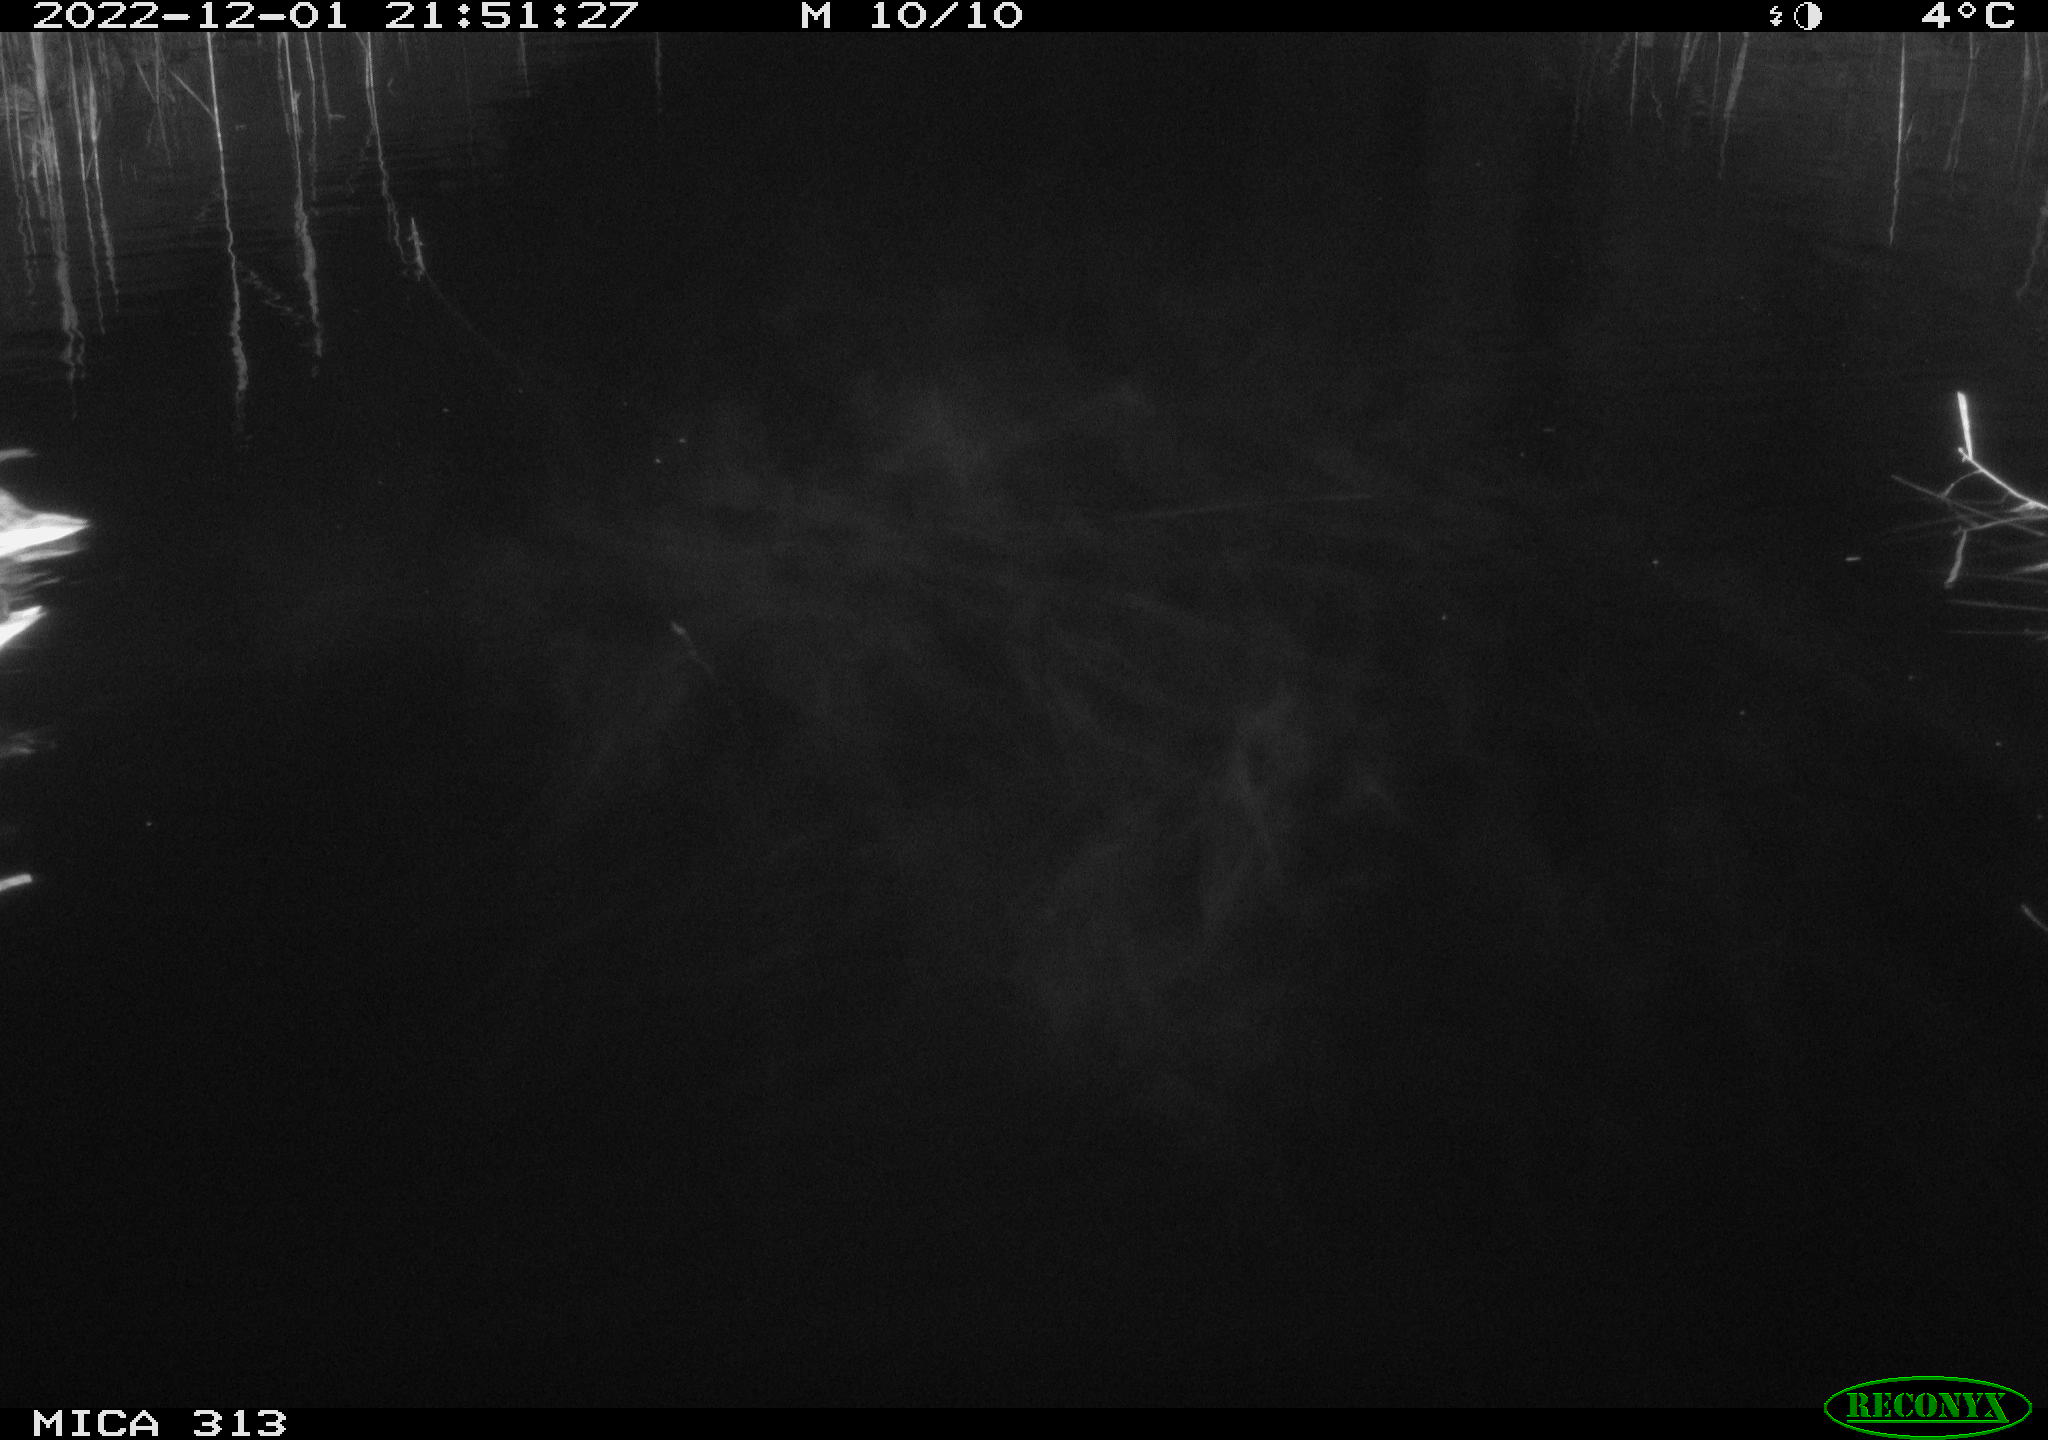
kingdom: Animalia
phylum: Chordata
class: Aves
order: Anseriformes
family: Anatidae
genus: Anas
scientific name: Anas
